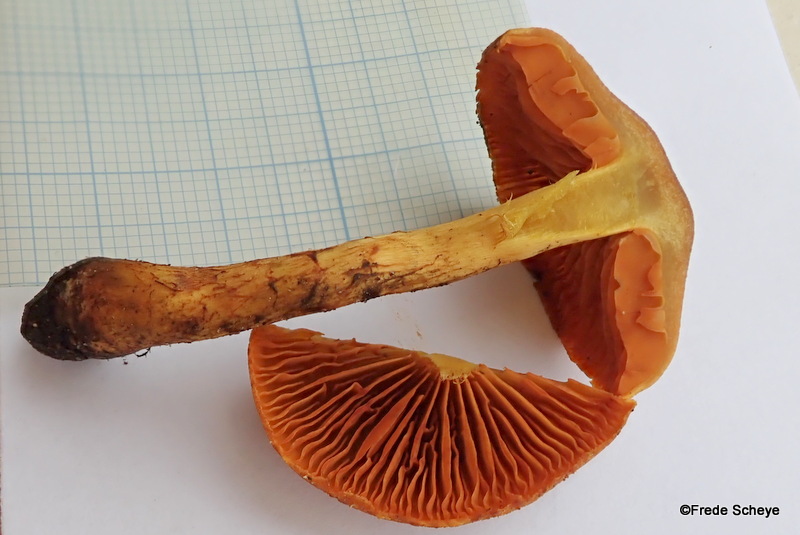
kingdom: Fungi
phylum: Basidiomycota
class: Agaricomycetes
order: Agaricales
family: Cortinariaceae
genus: Cortinarius
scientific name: Cortinarius
